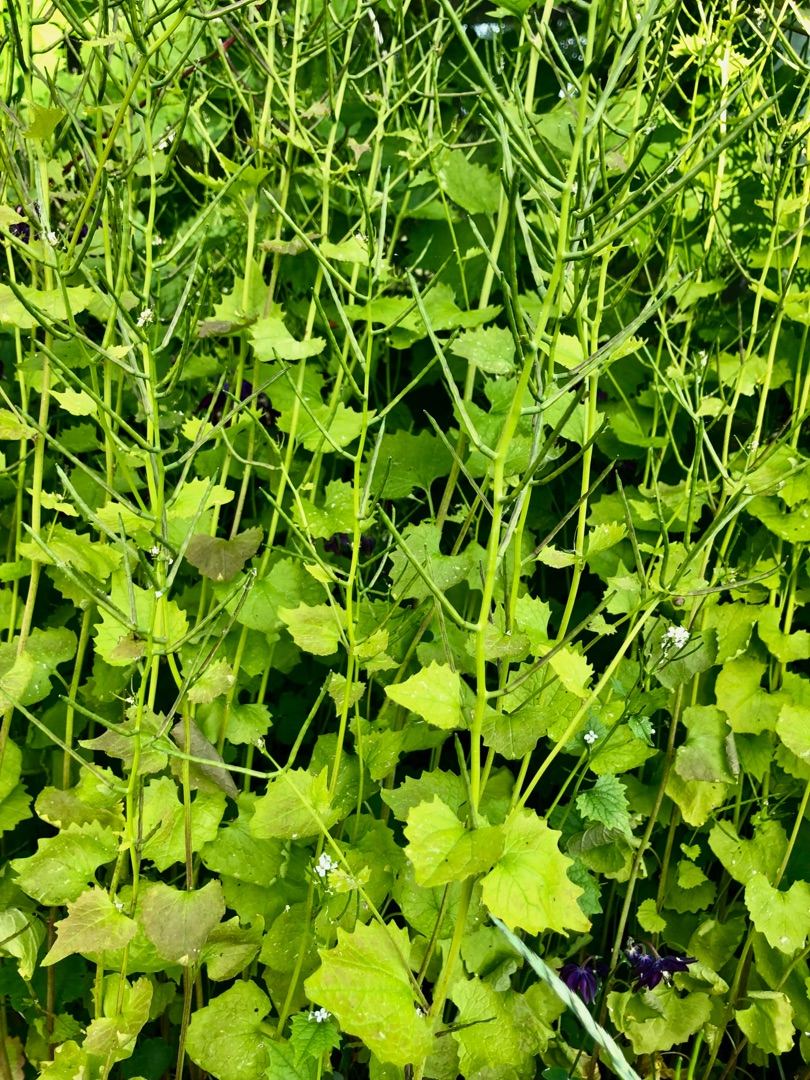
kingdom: Plantae
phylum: Tracheophyta
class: Magnoliopsida
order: Brassicales
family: Brassicaceae
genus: Alliaria
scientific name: Alliaria petiolata
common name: Løgkarse
